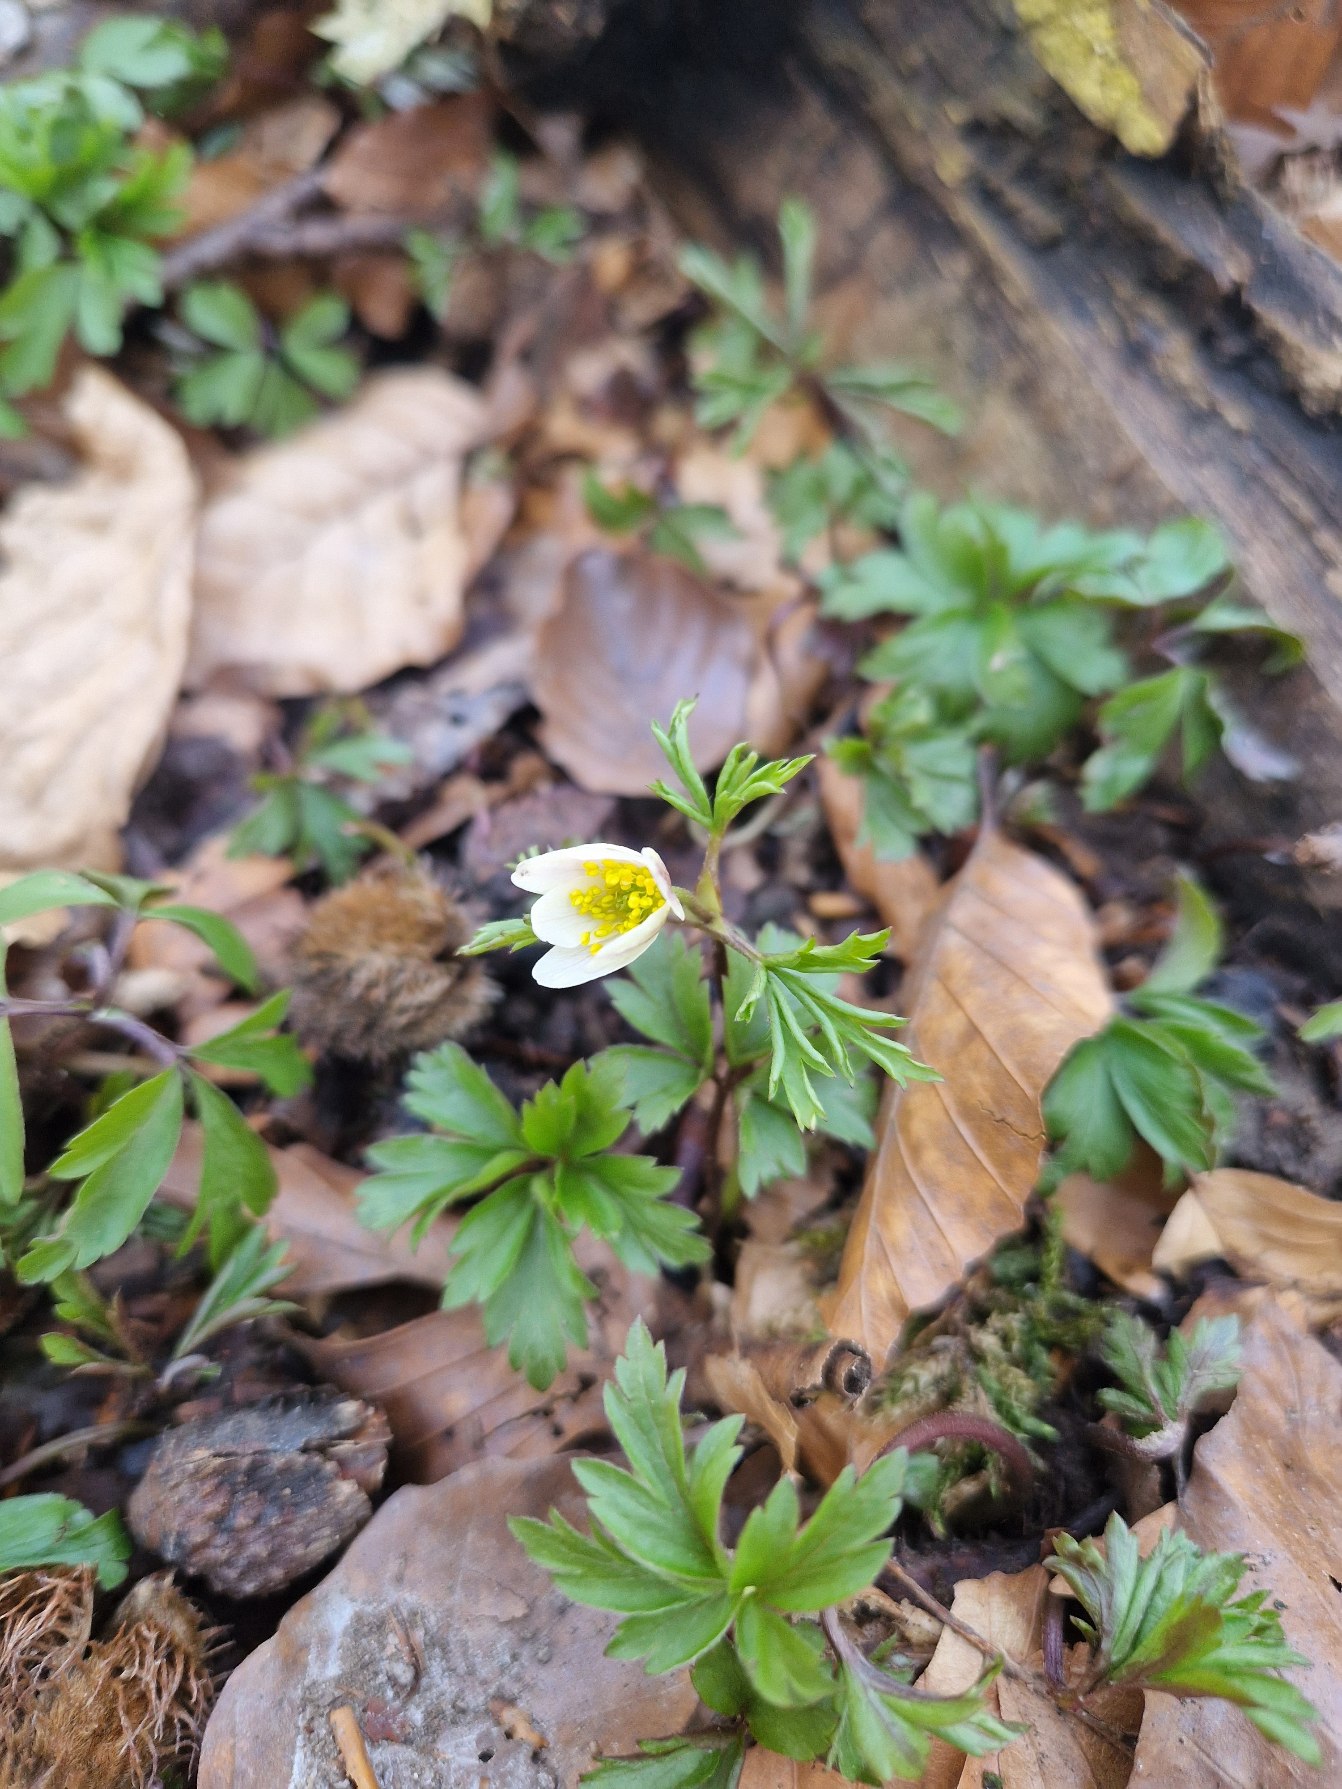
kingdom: Plantae
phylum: Tracheophyta
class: Magnoliopsida
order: Ranunculales
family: Ranunculaceae
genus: Anemone
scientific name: Anemone nemorosa
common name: Hvid anemone
